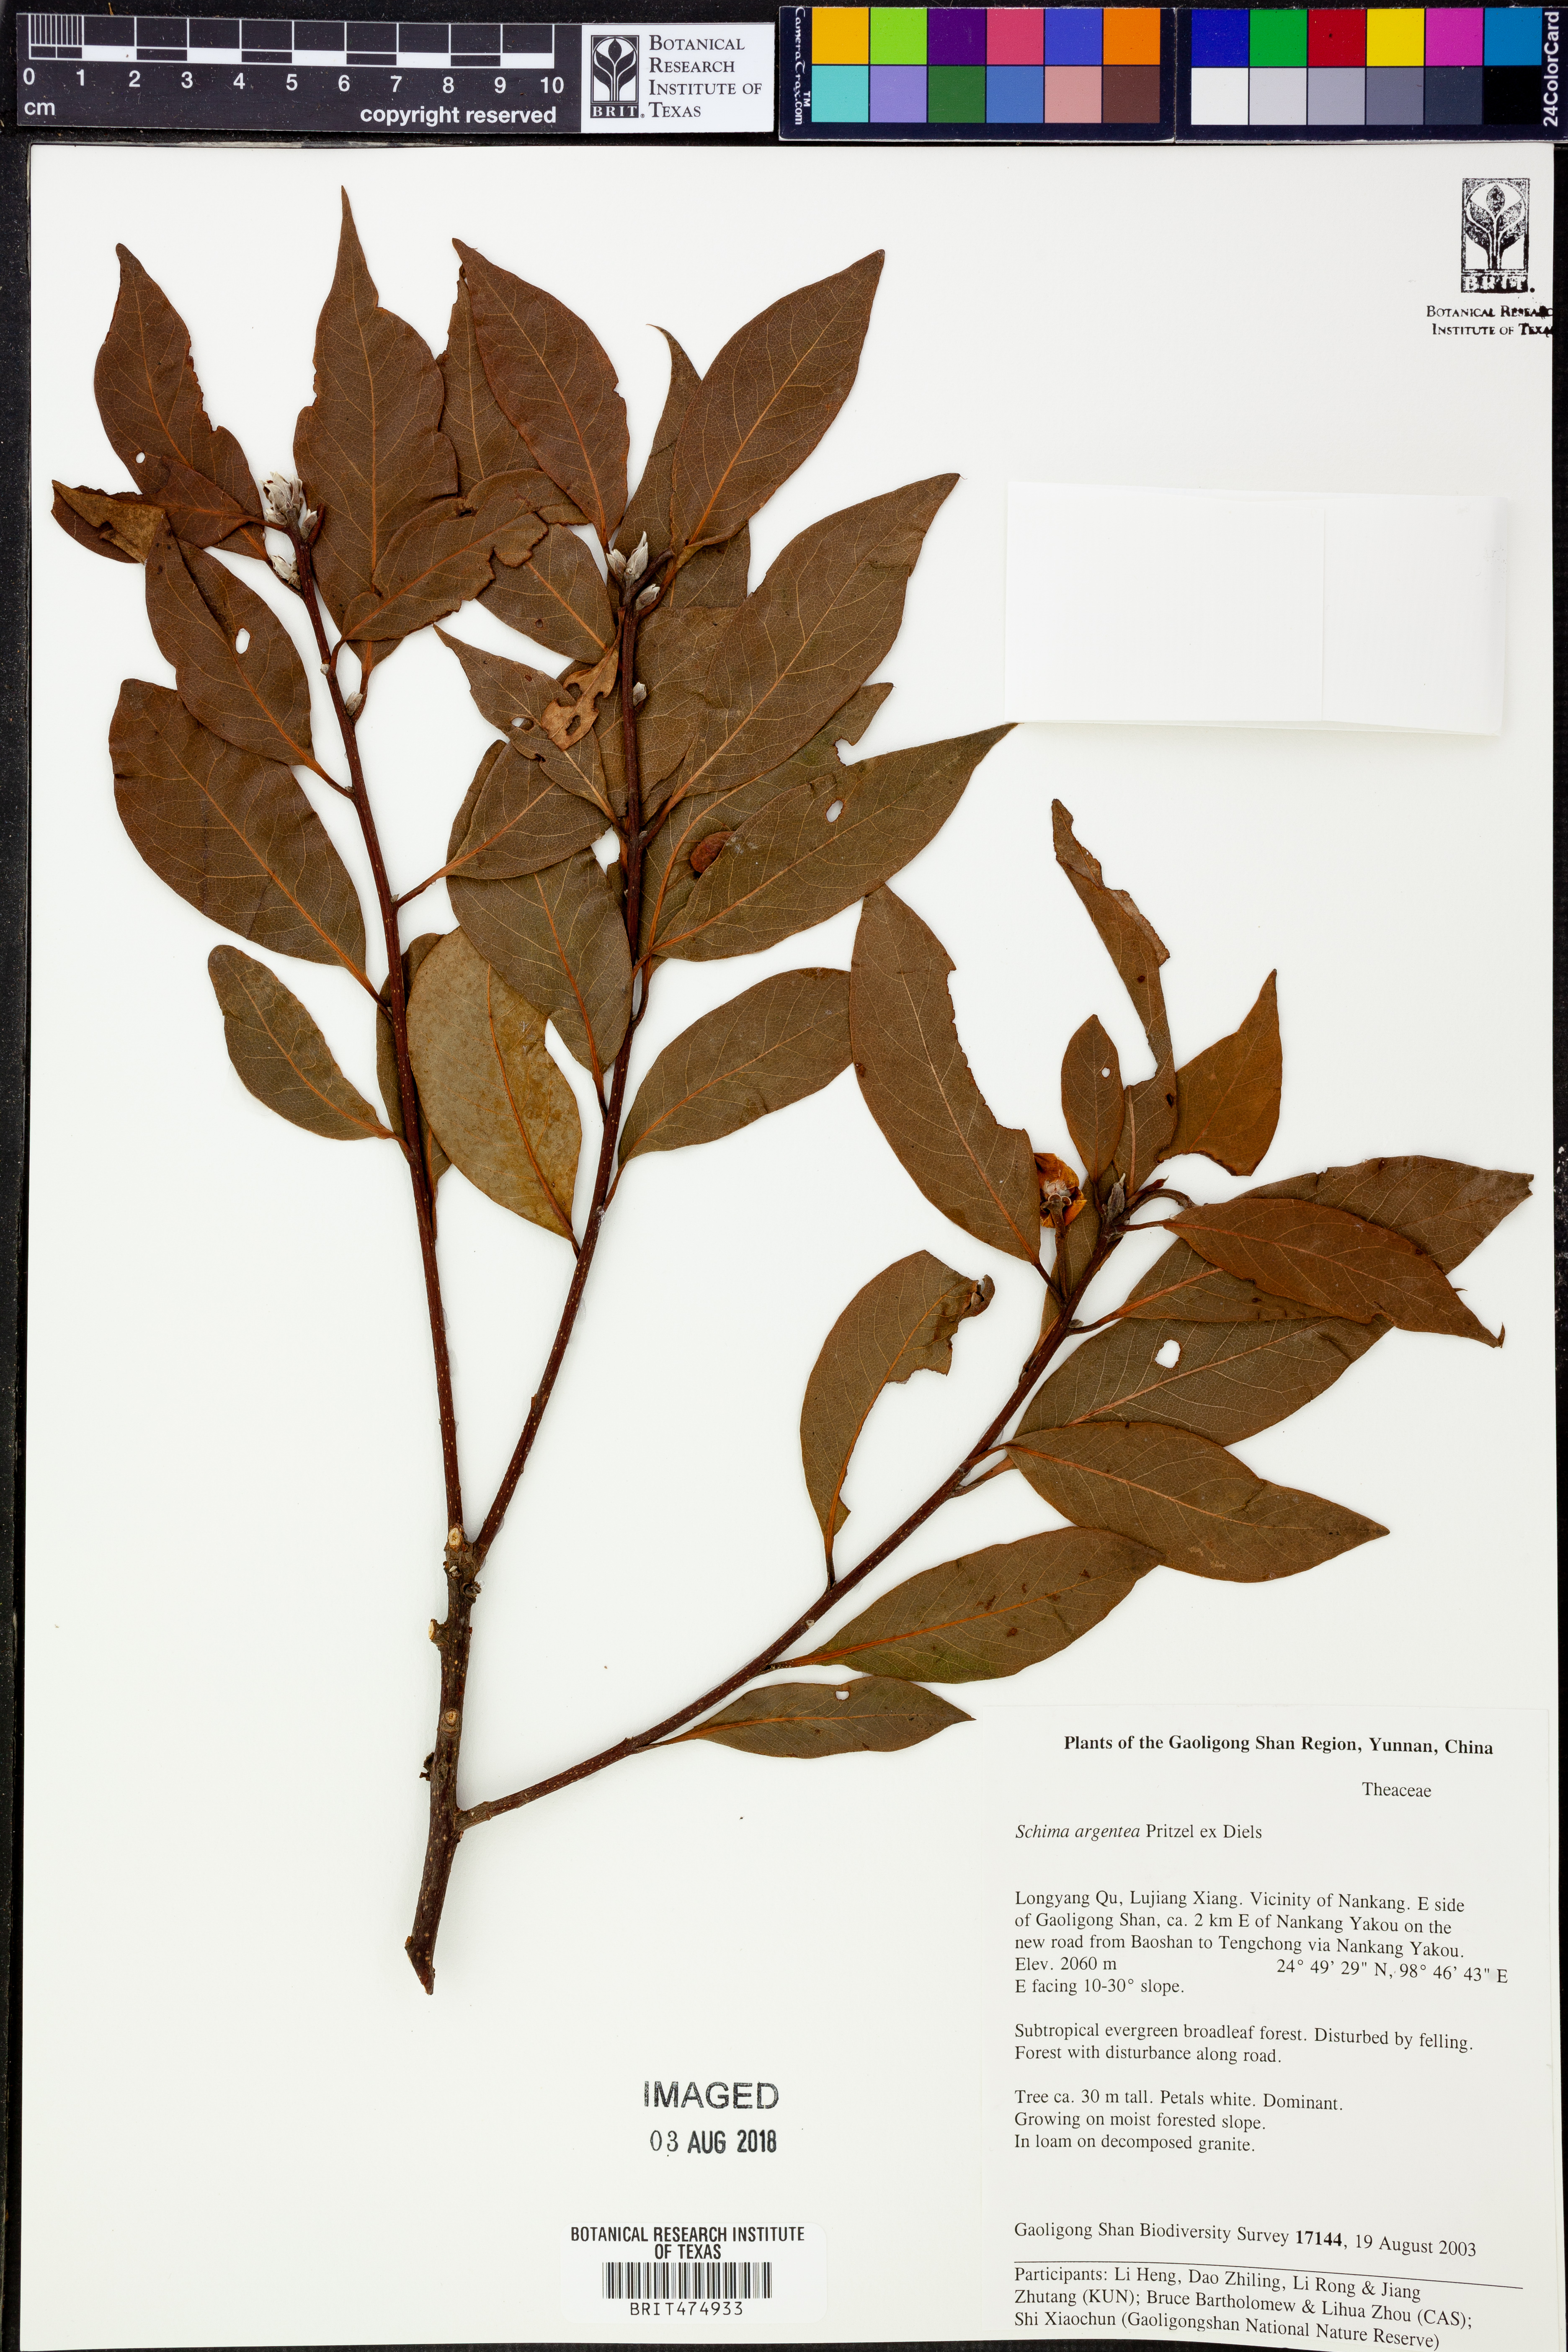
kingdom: Plantae
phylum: Tracheophyta
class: Magnoliopsida
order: Ericales
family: Theaceae
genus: Schima
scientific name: Schima argentea
